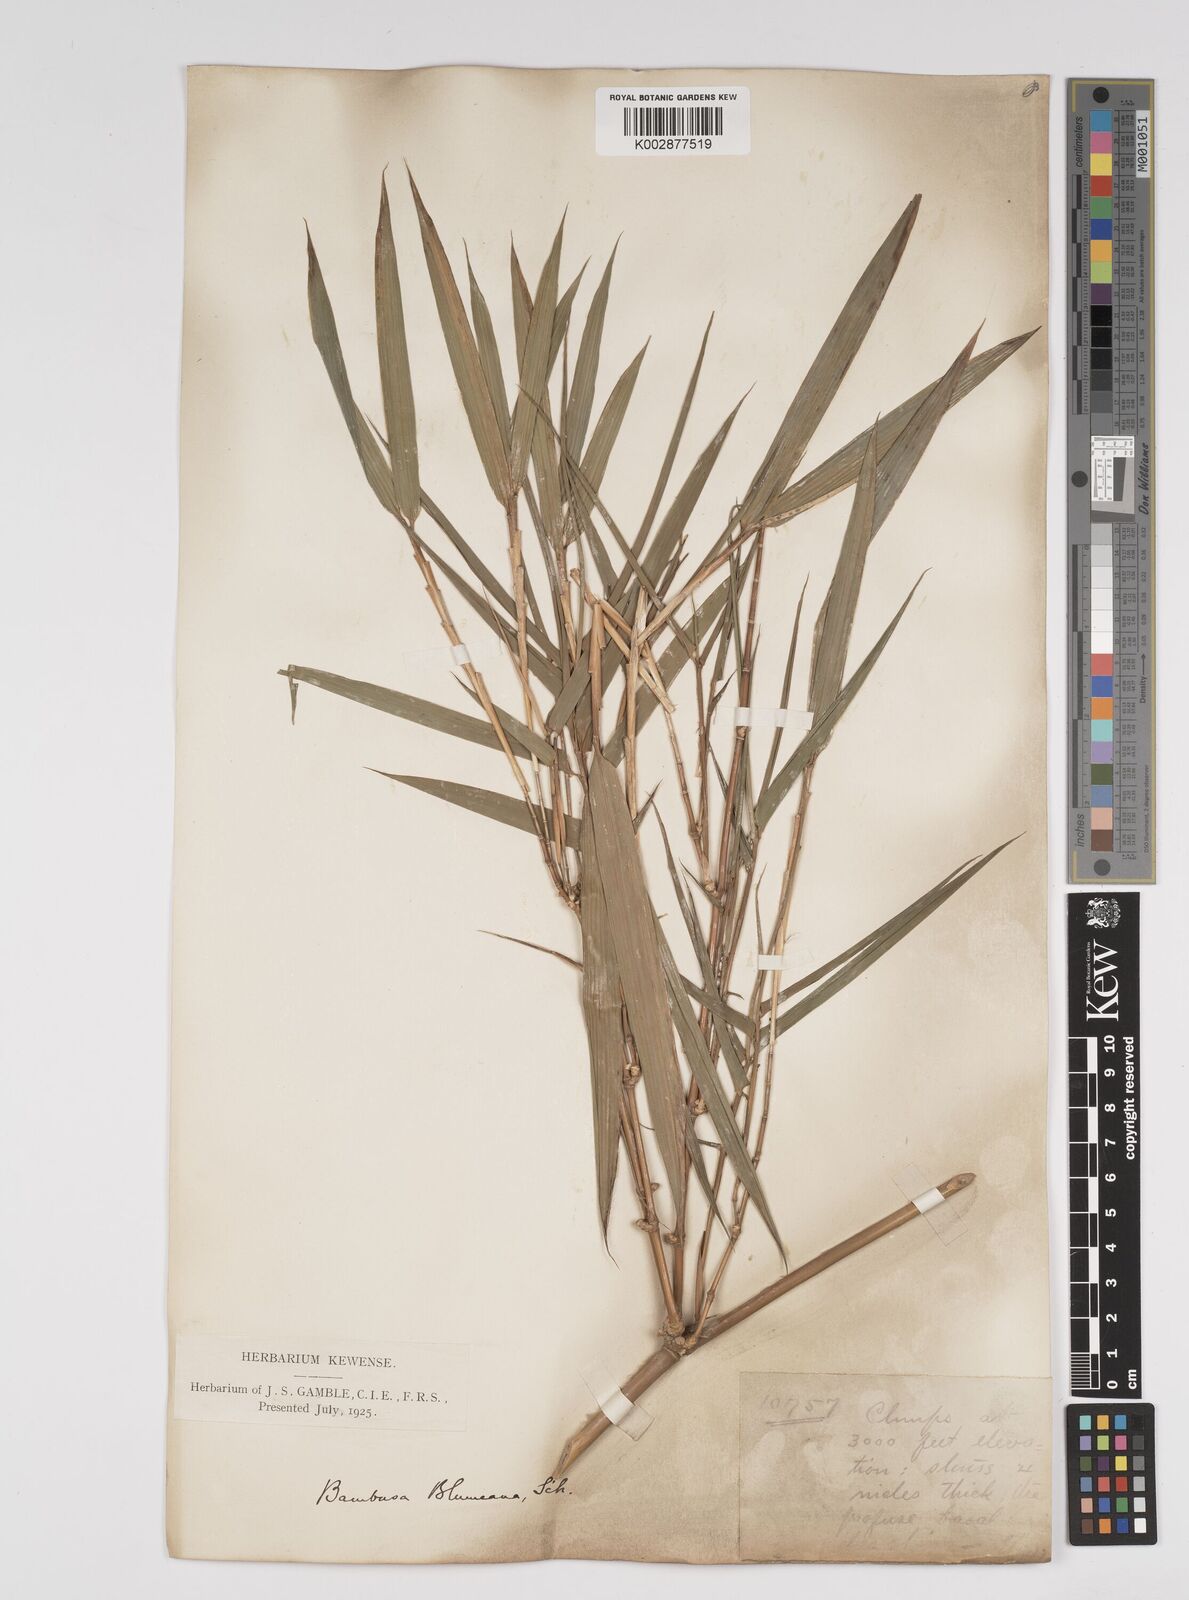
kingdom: Plantae
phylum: Tracheophyta
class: Liliopsida
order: Poales
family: Poaceae
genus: Bambusa
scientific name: Bambusa spinosa
